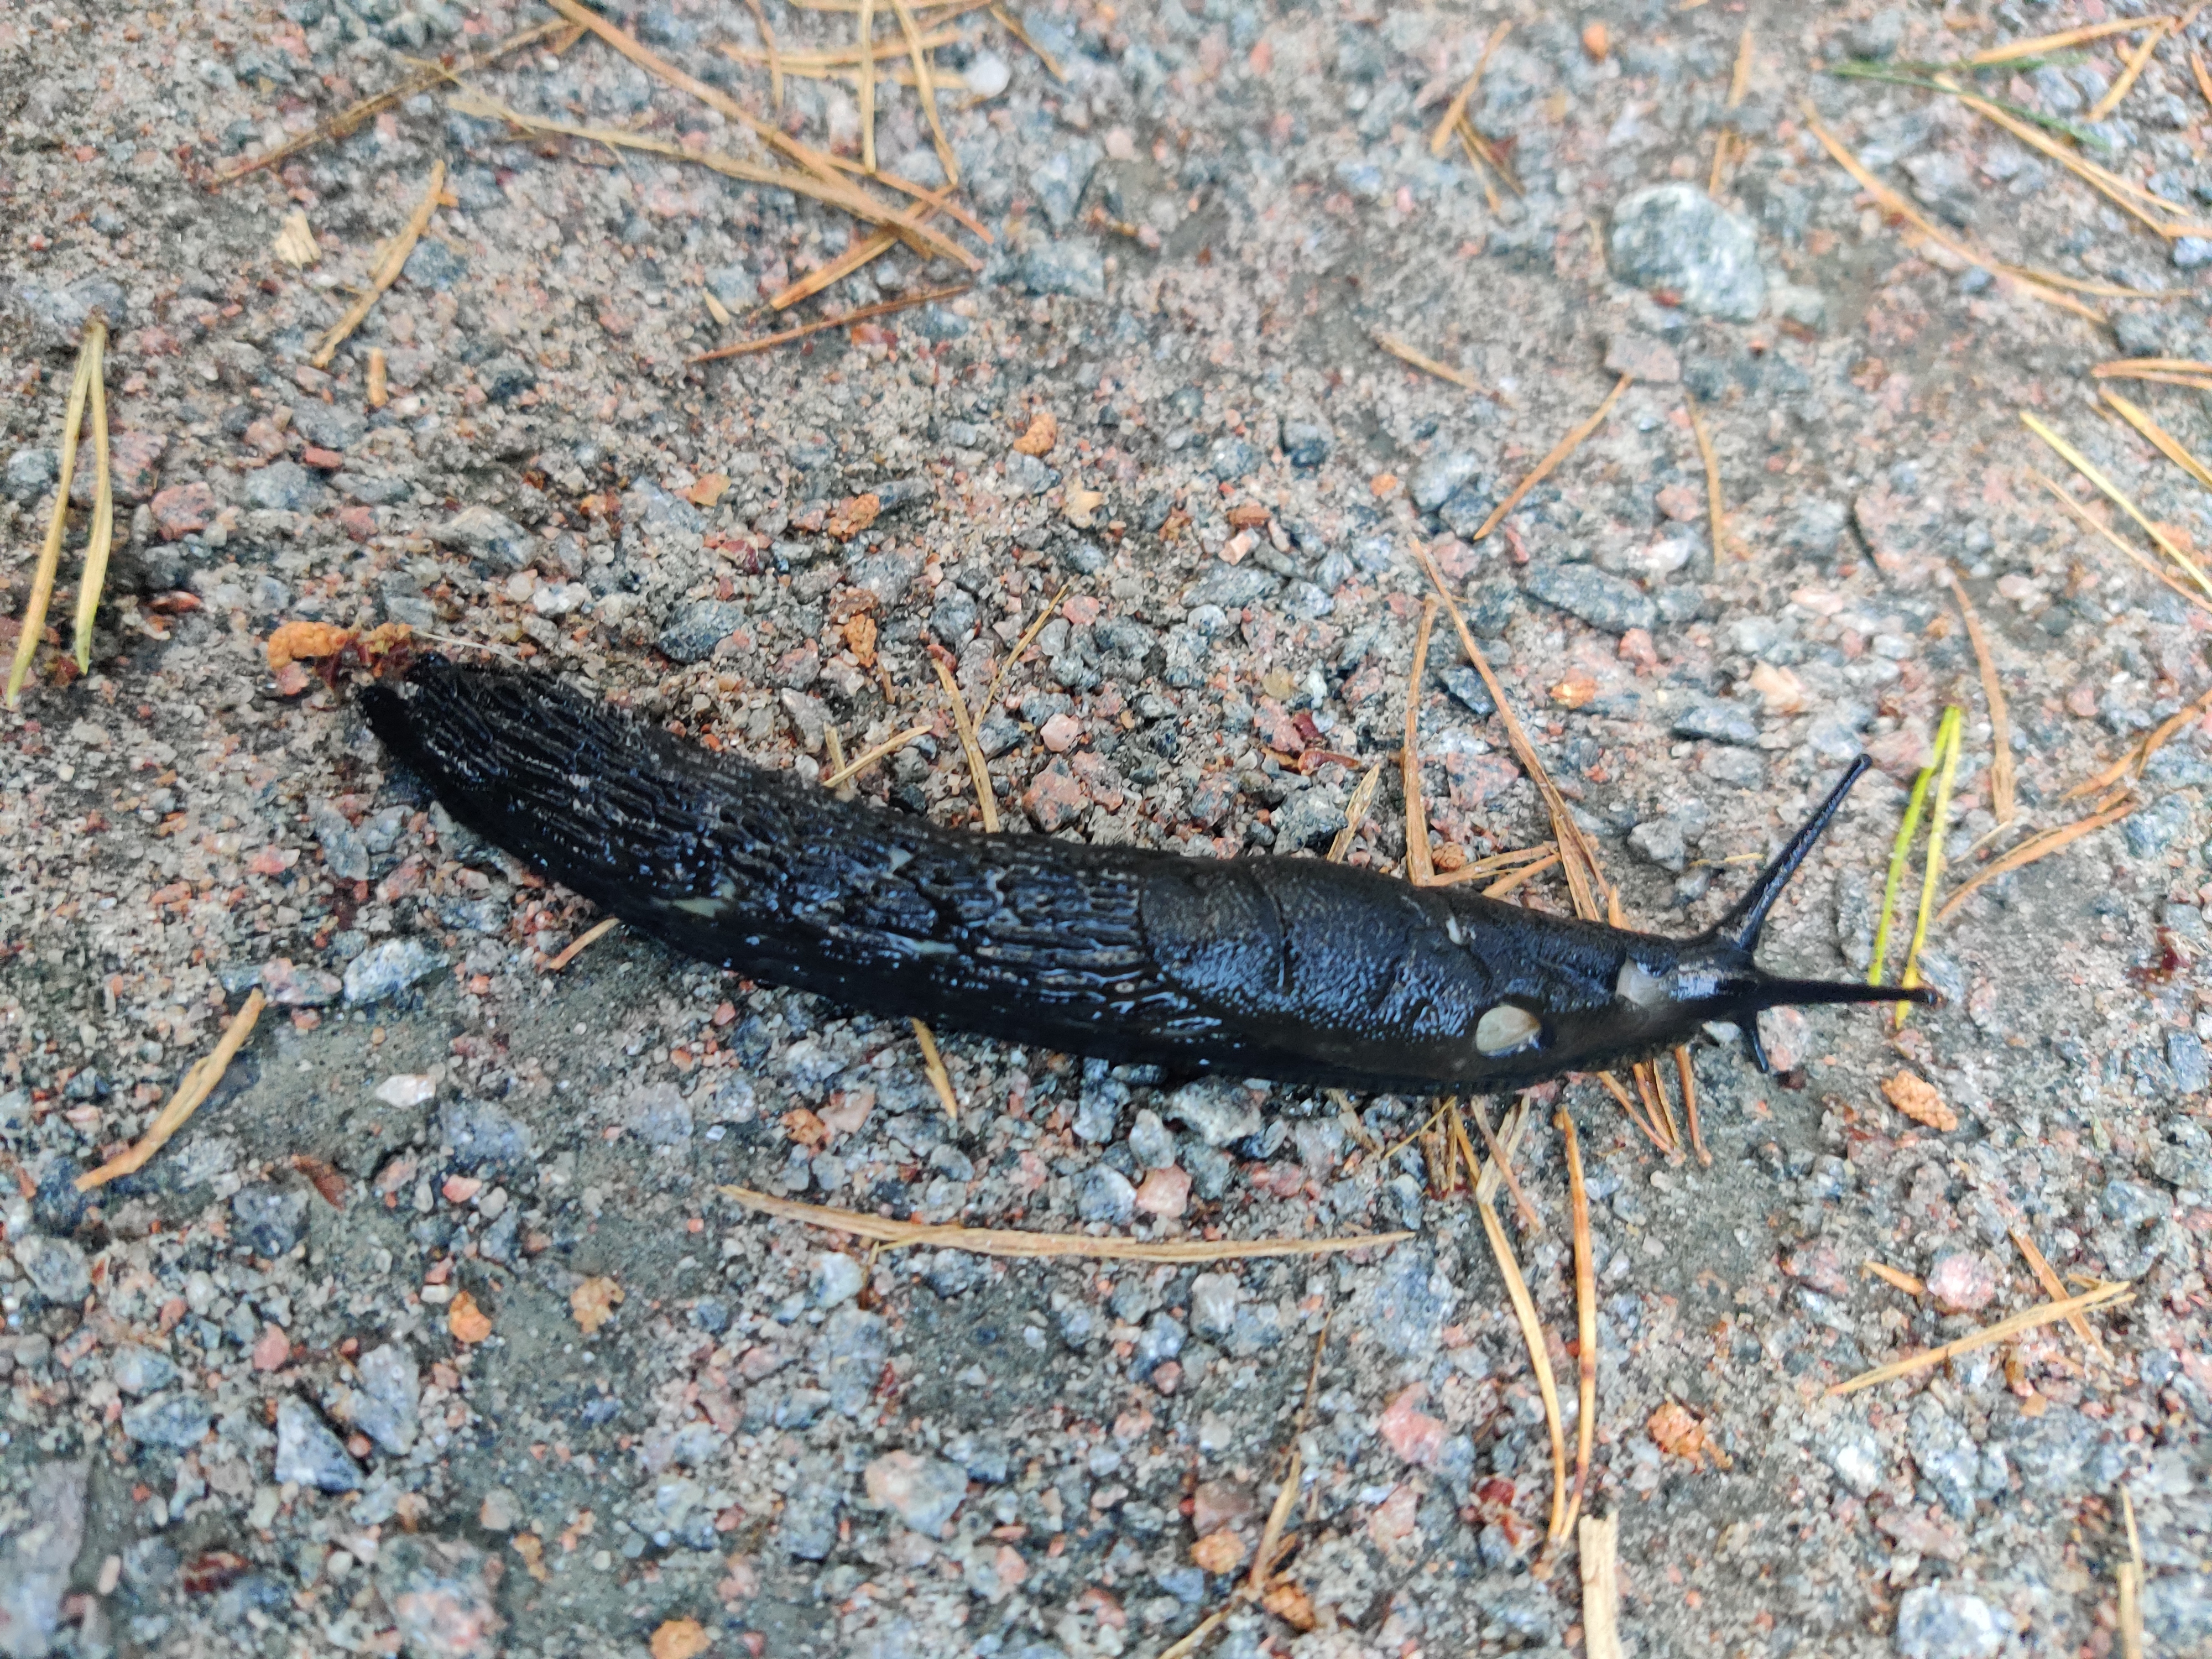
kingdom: Animalia
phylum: Mollusca
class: Gastropoda
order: Stylommatophora
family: Arionidae
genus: Arion
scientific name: Arion vulgaris
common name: Lusitanian slug
